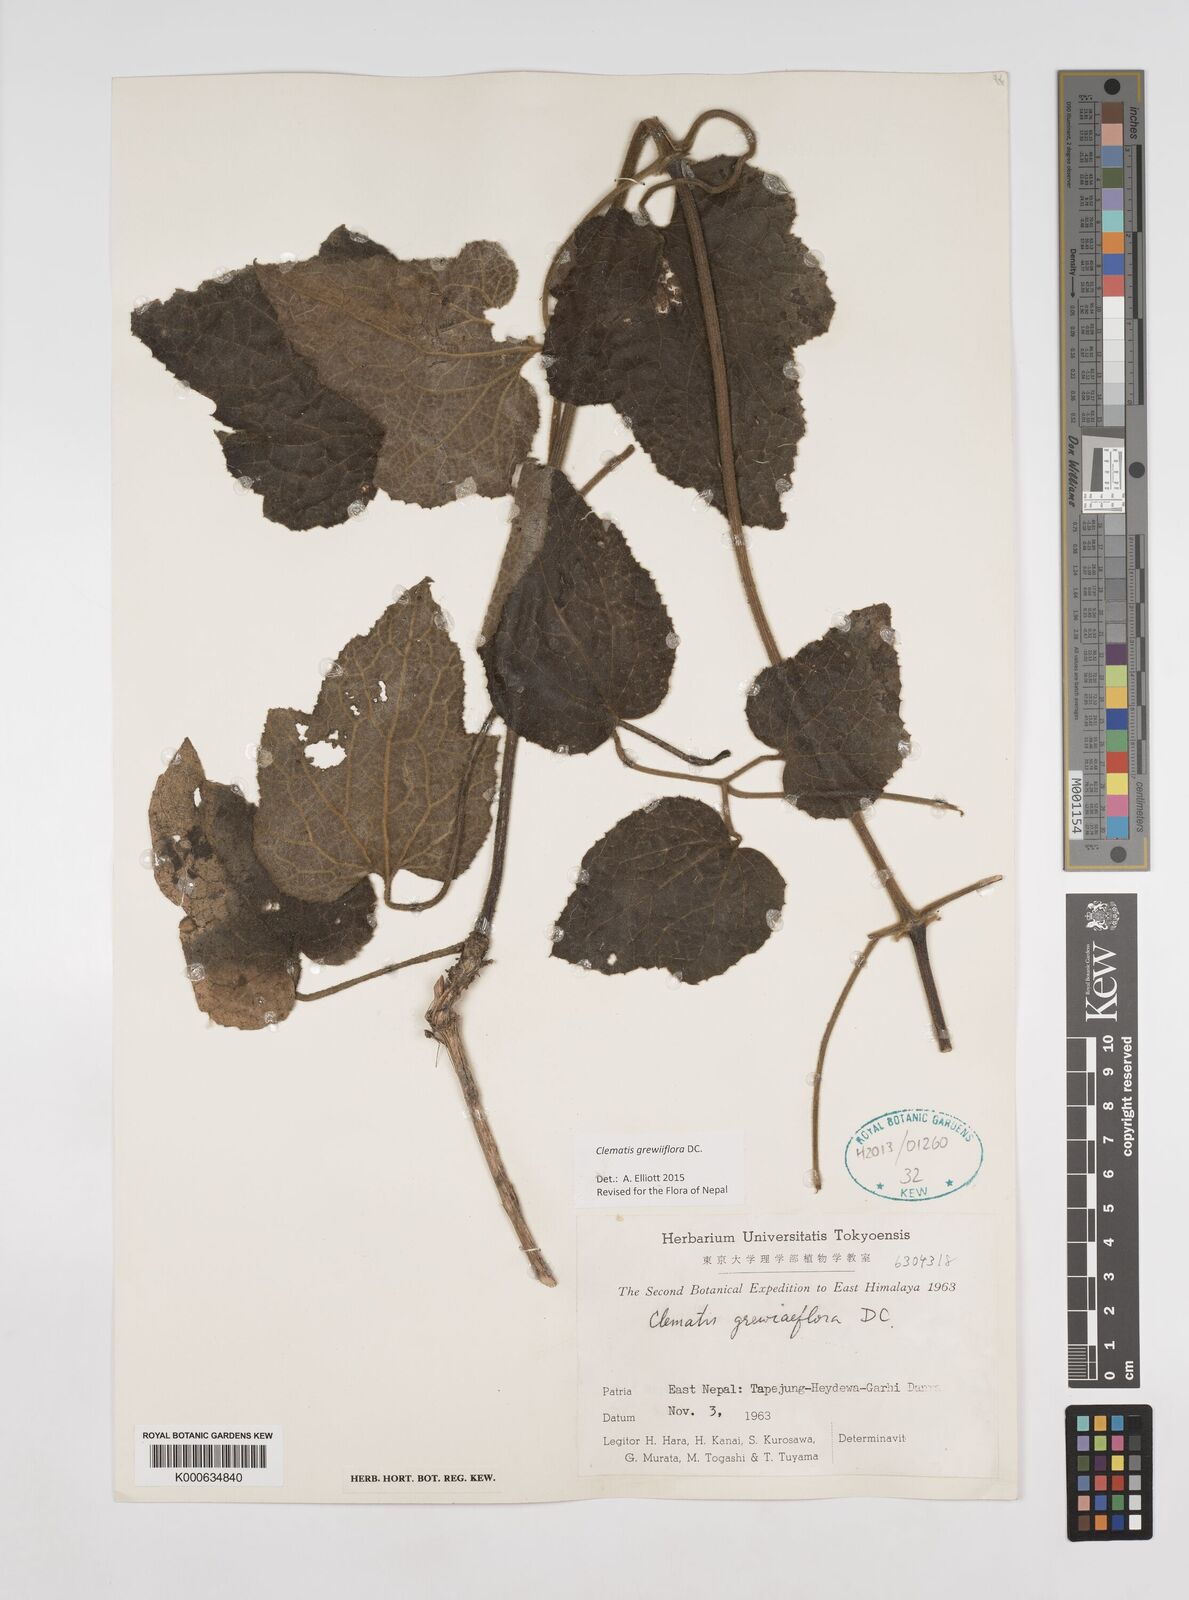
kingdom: Plantae
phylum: Tracheophyta
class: Magnoliopsida
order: Ranunculales
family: Ranunculaceae
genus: Clematis
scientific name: Clematis grewiiflora
